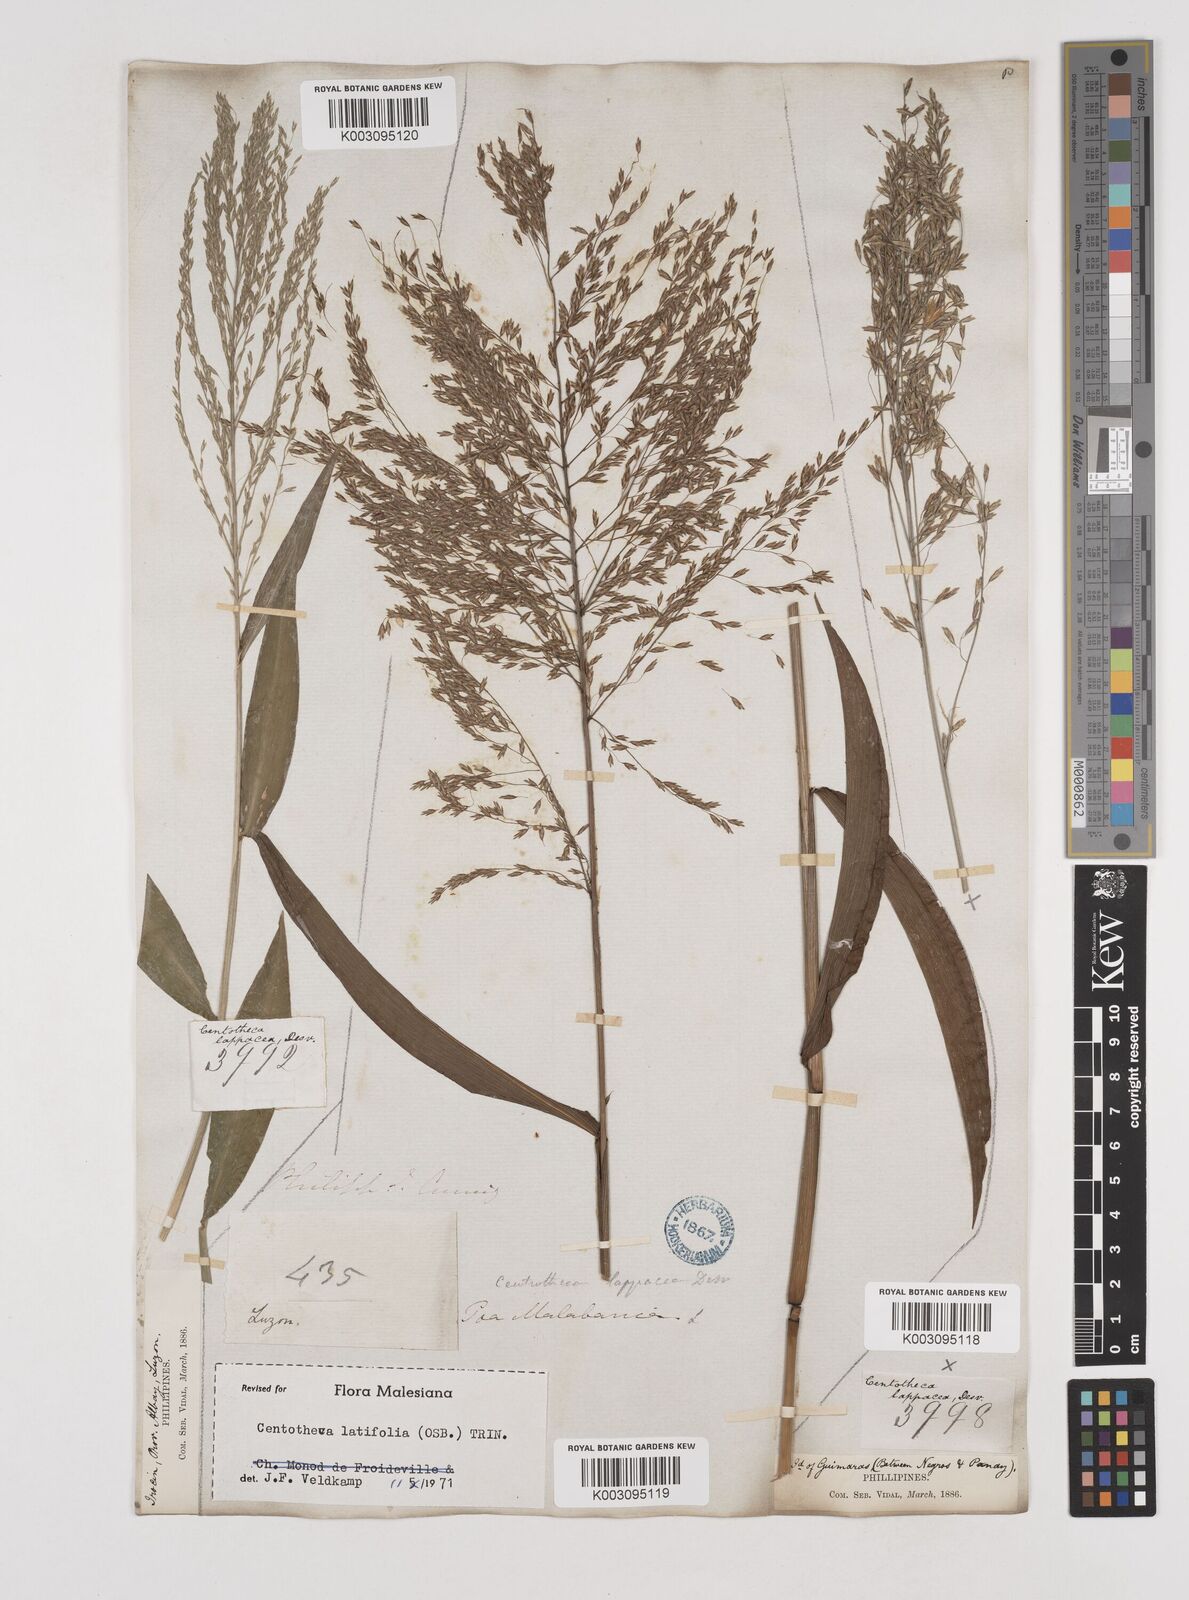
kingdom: Plantae
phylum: Tracheophyta
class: Liliopsida
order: Poales
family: Poaceae
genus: Centotheca
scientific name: Centotheca lappacea
